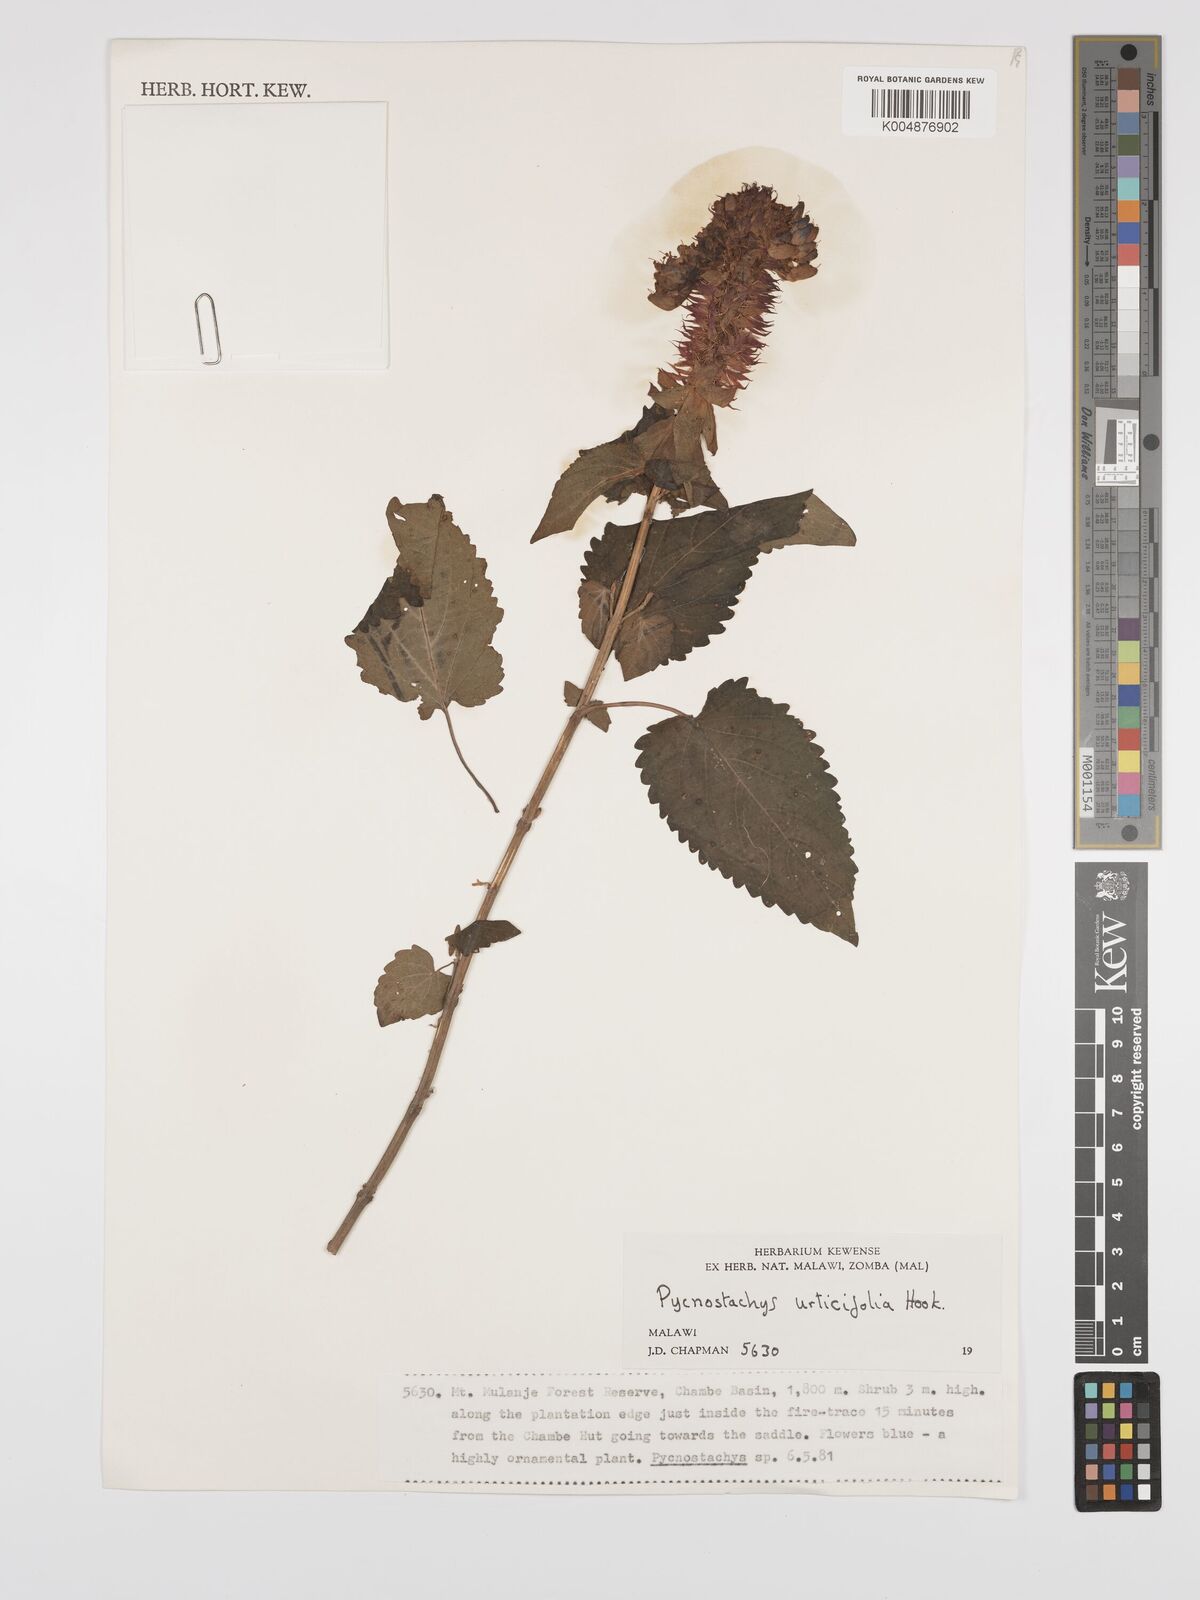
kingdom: Plantae
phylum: Tracheophyta
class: Magnoliopsida
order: Lamiales
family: Lamiaceae
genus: Coleus
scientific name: Coleus livingstonei
